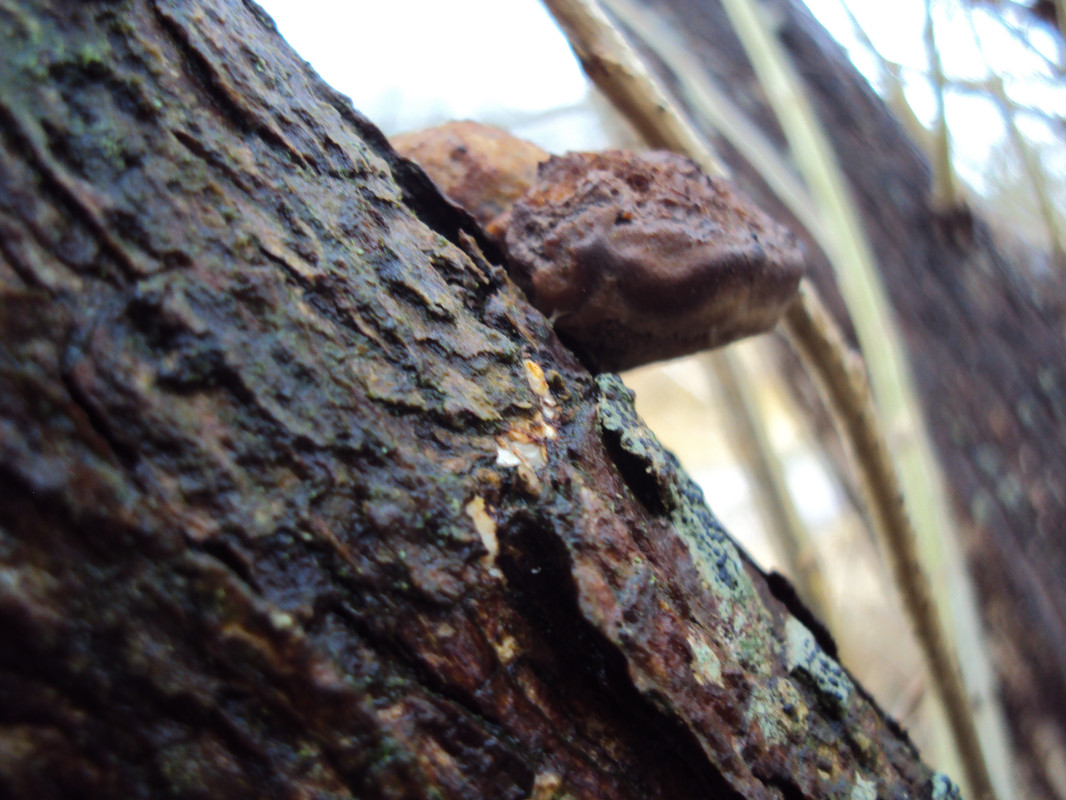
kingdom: Fungi
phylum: Basidiomycota
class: Agaricomycetes
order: Polyporales
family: Polyporaceae
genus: Daedaleopsis
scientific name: Daedaleopsis confragosa
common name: rødmende læderporesvamp
